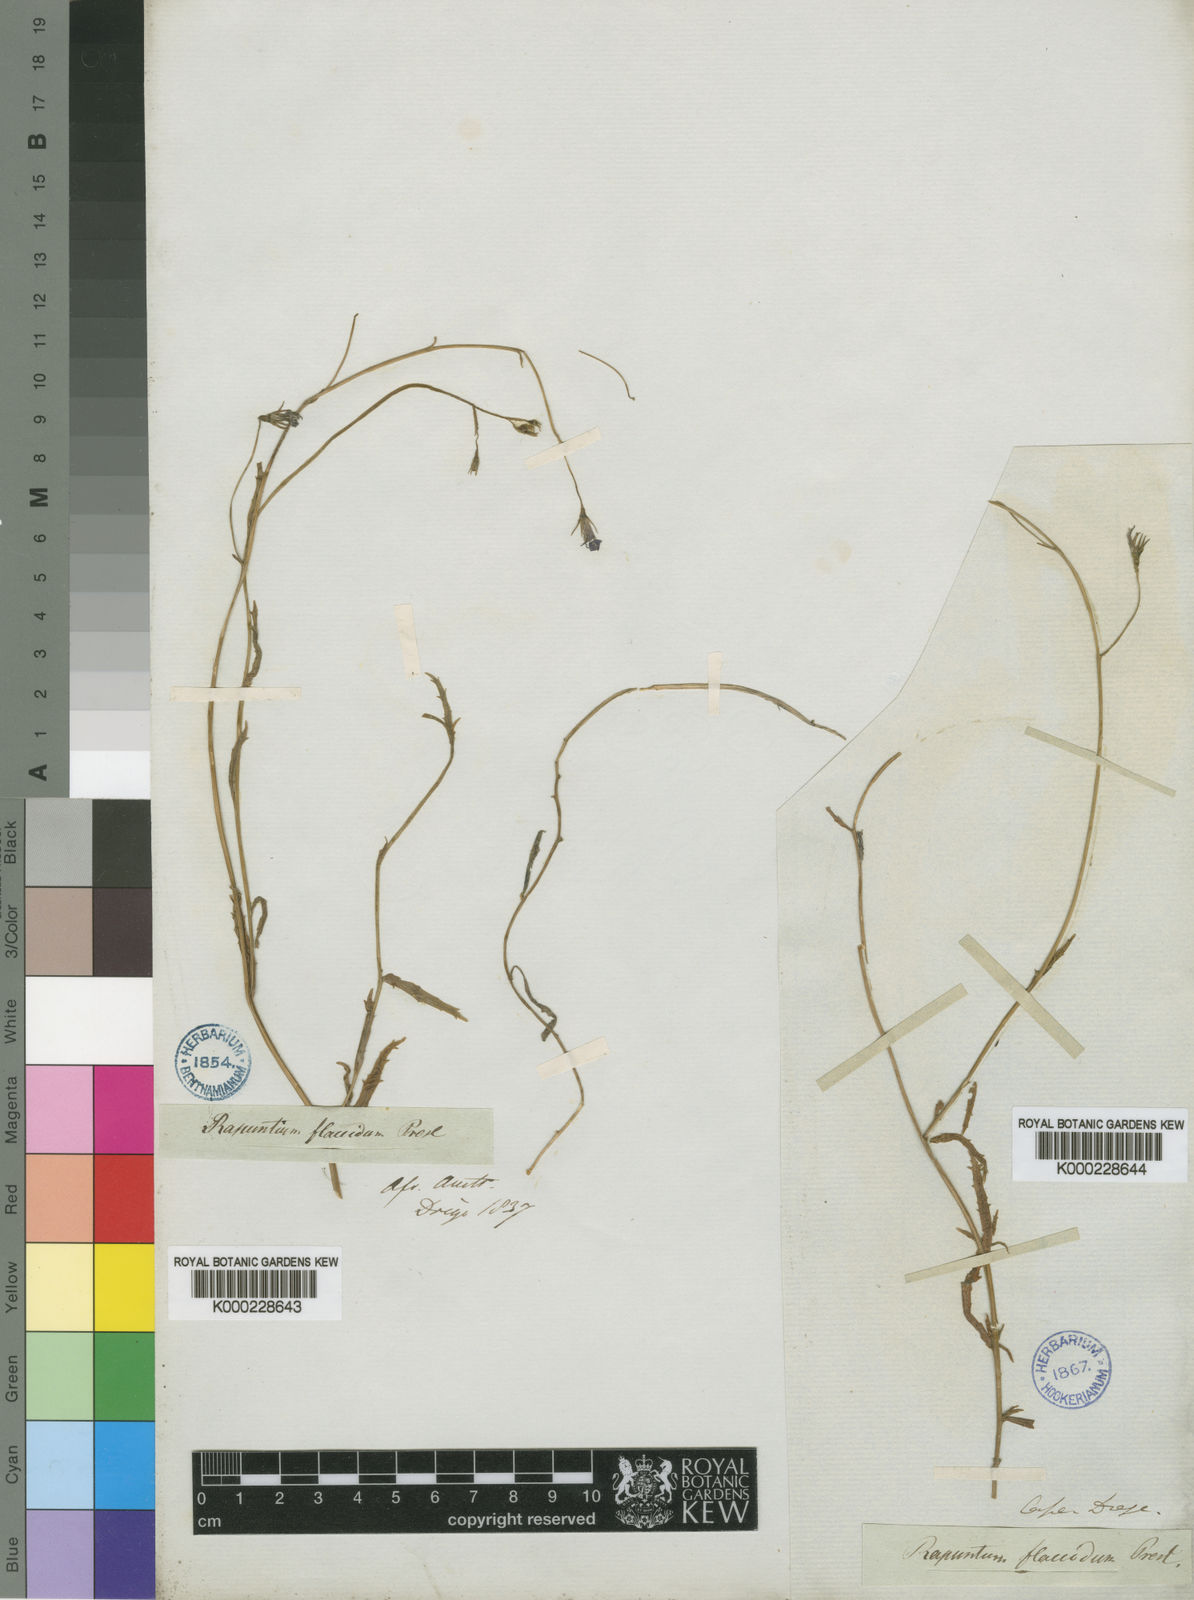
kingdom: Plantae
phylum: Tracheophyta
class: Magnoliopsida
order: Asterales
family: Campanulaceae
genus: Lobelia
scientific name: Lobelia erinus
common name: Edging lobelia
